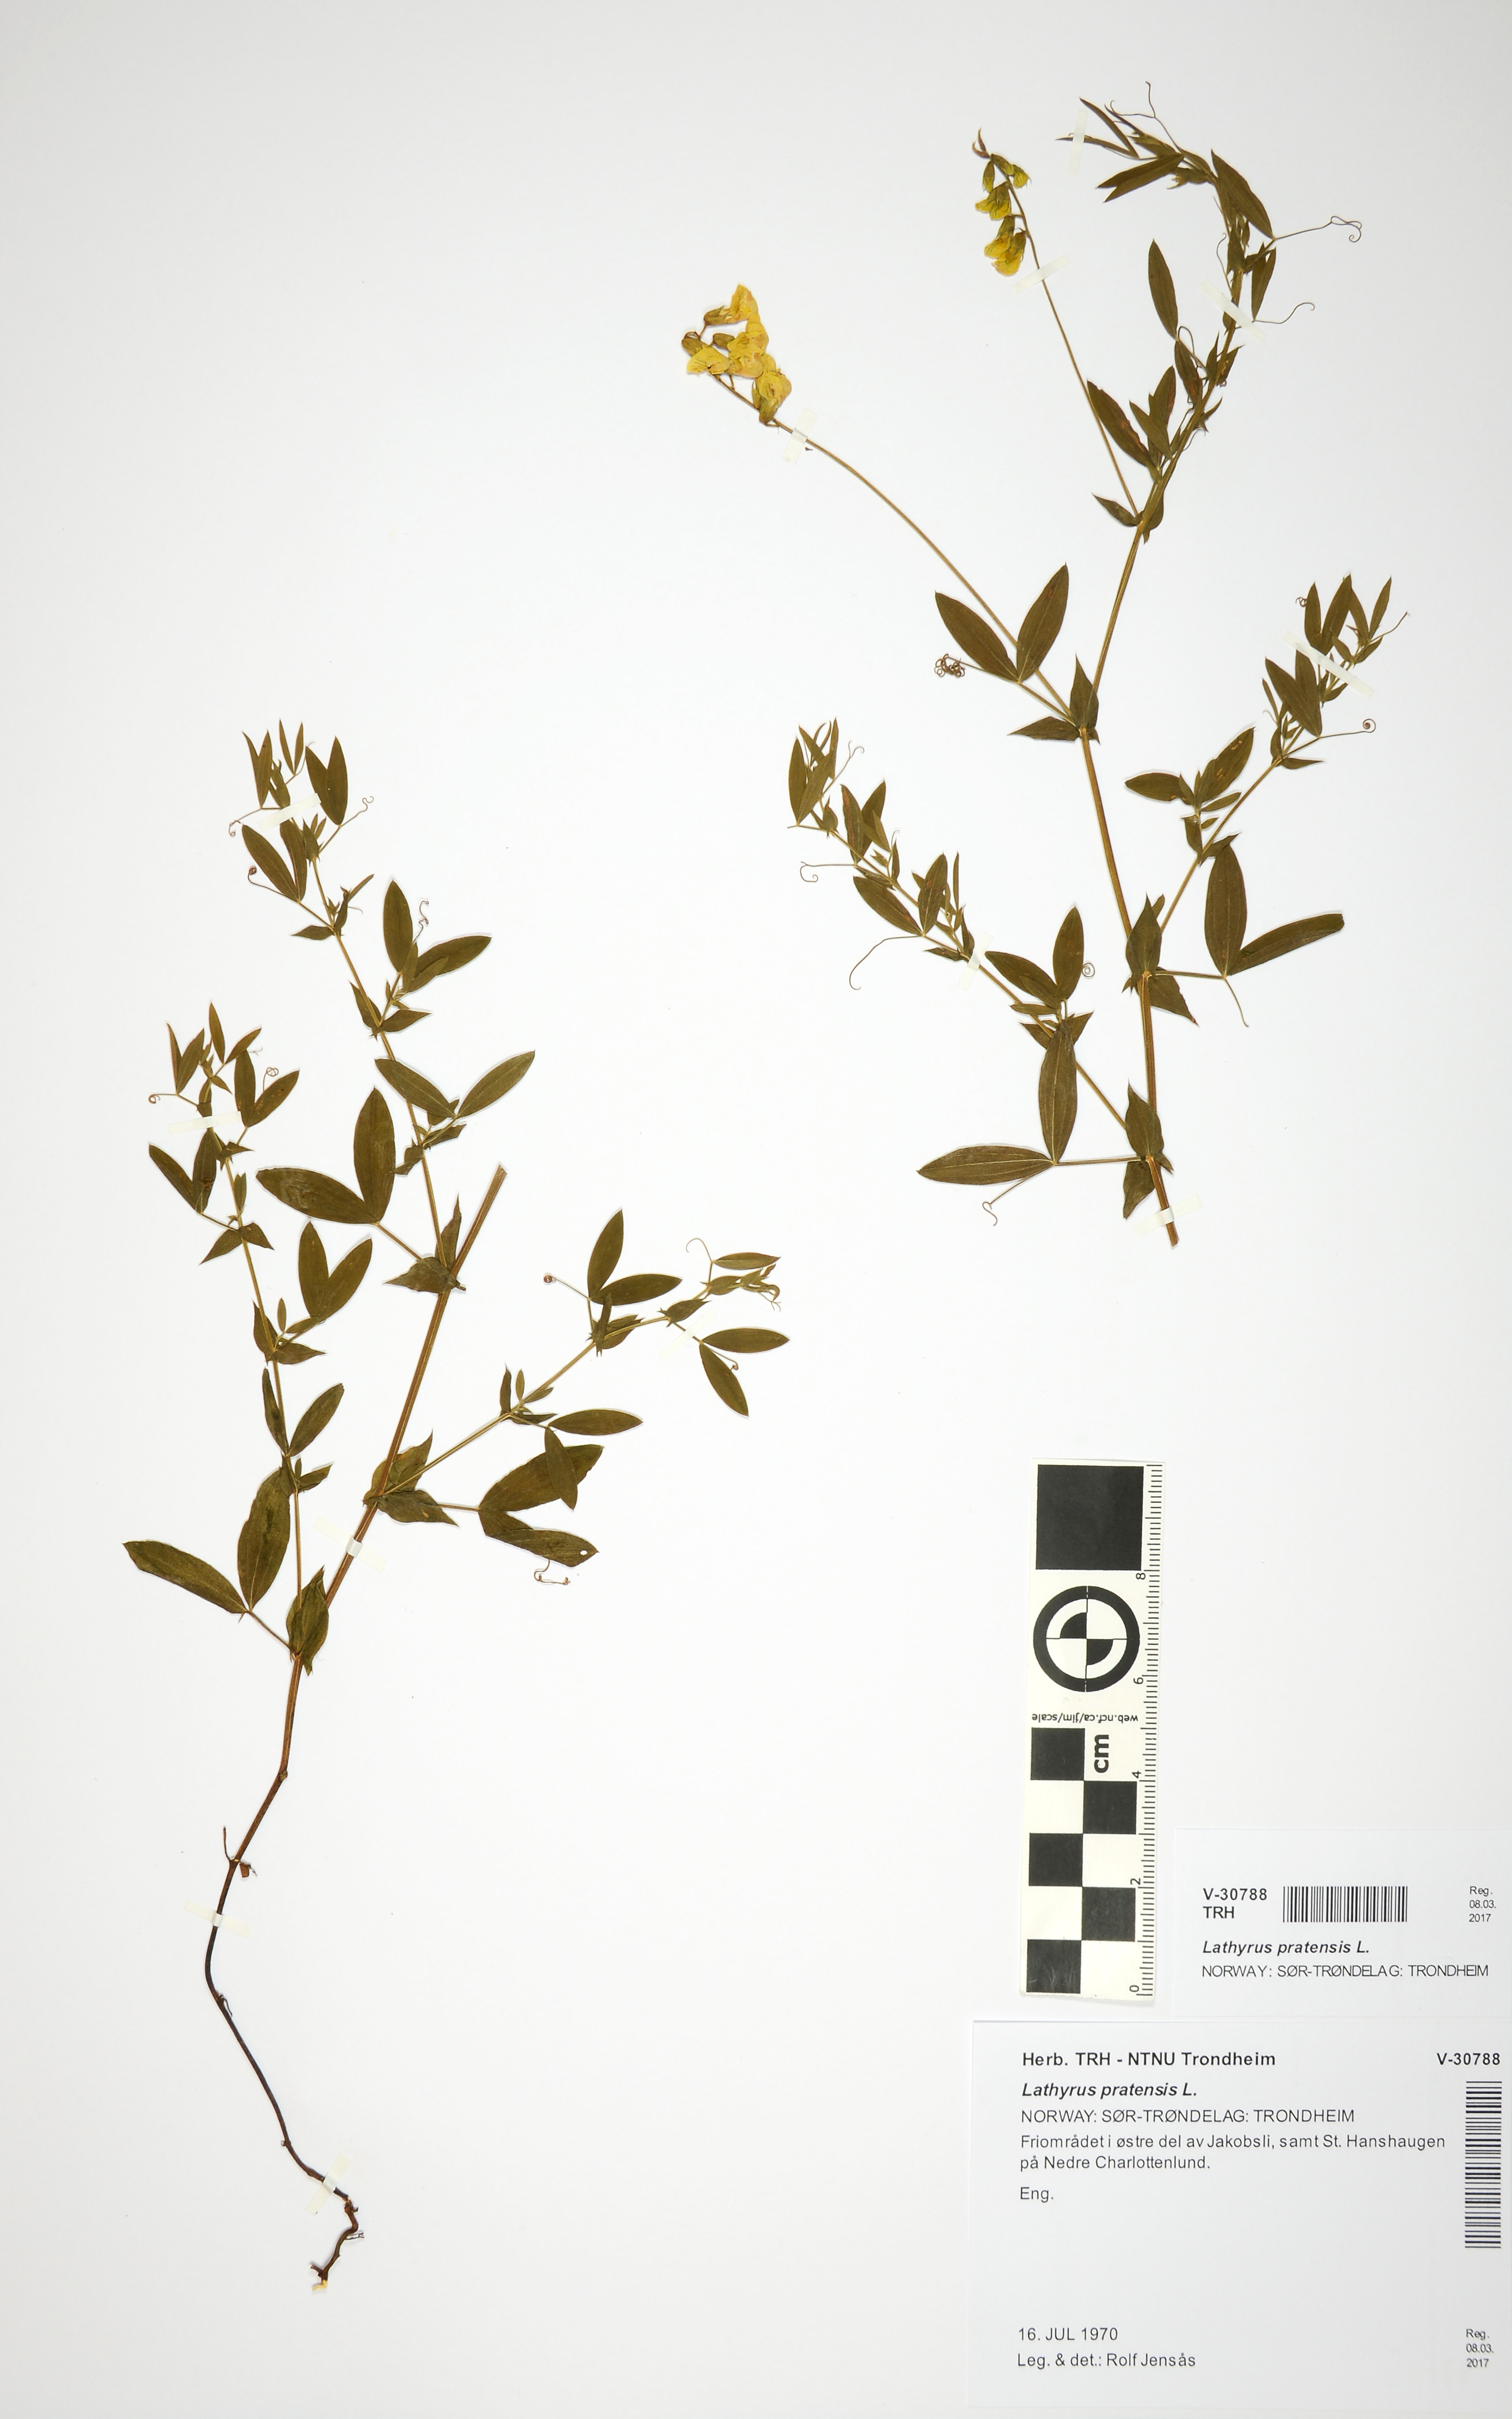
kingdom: Plantae
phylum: Tracheophyta
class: Magnoliopsida
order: Fabales
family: Fabaceae
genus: Lathyrus
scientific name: Lathyrus pratensis
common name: Meadow vetchling
